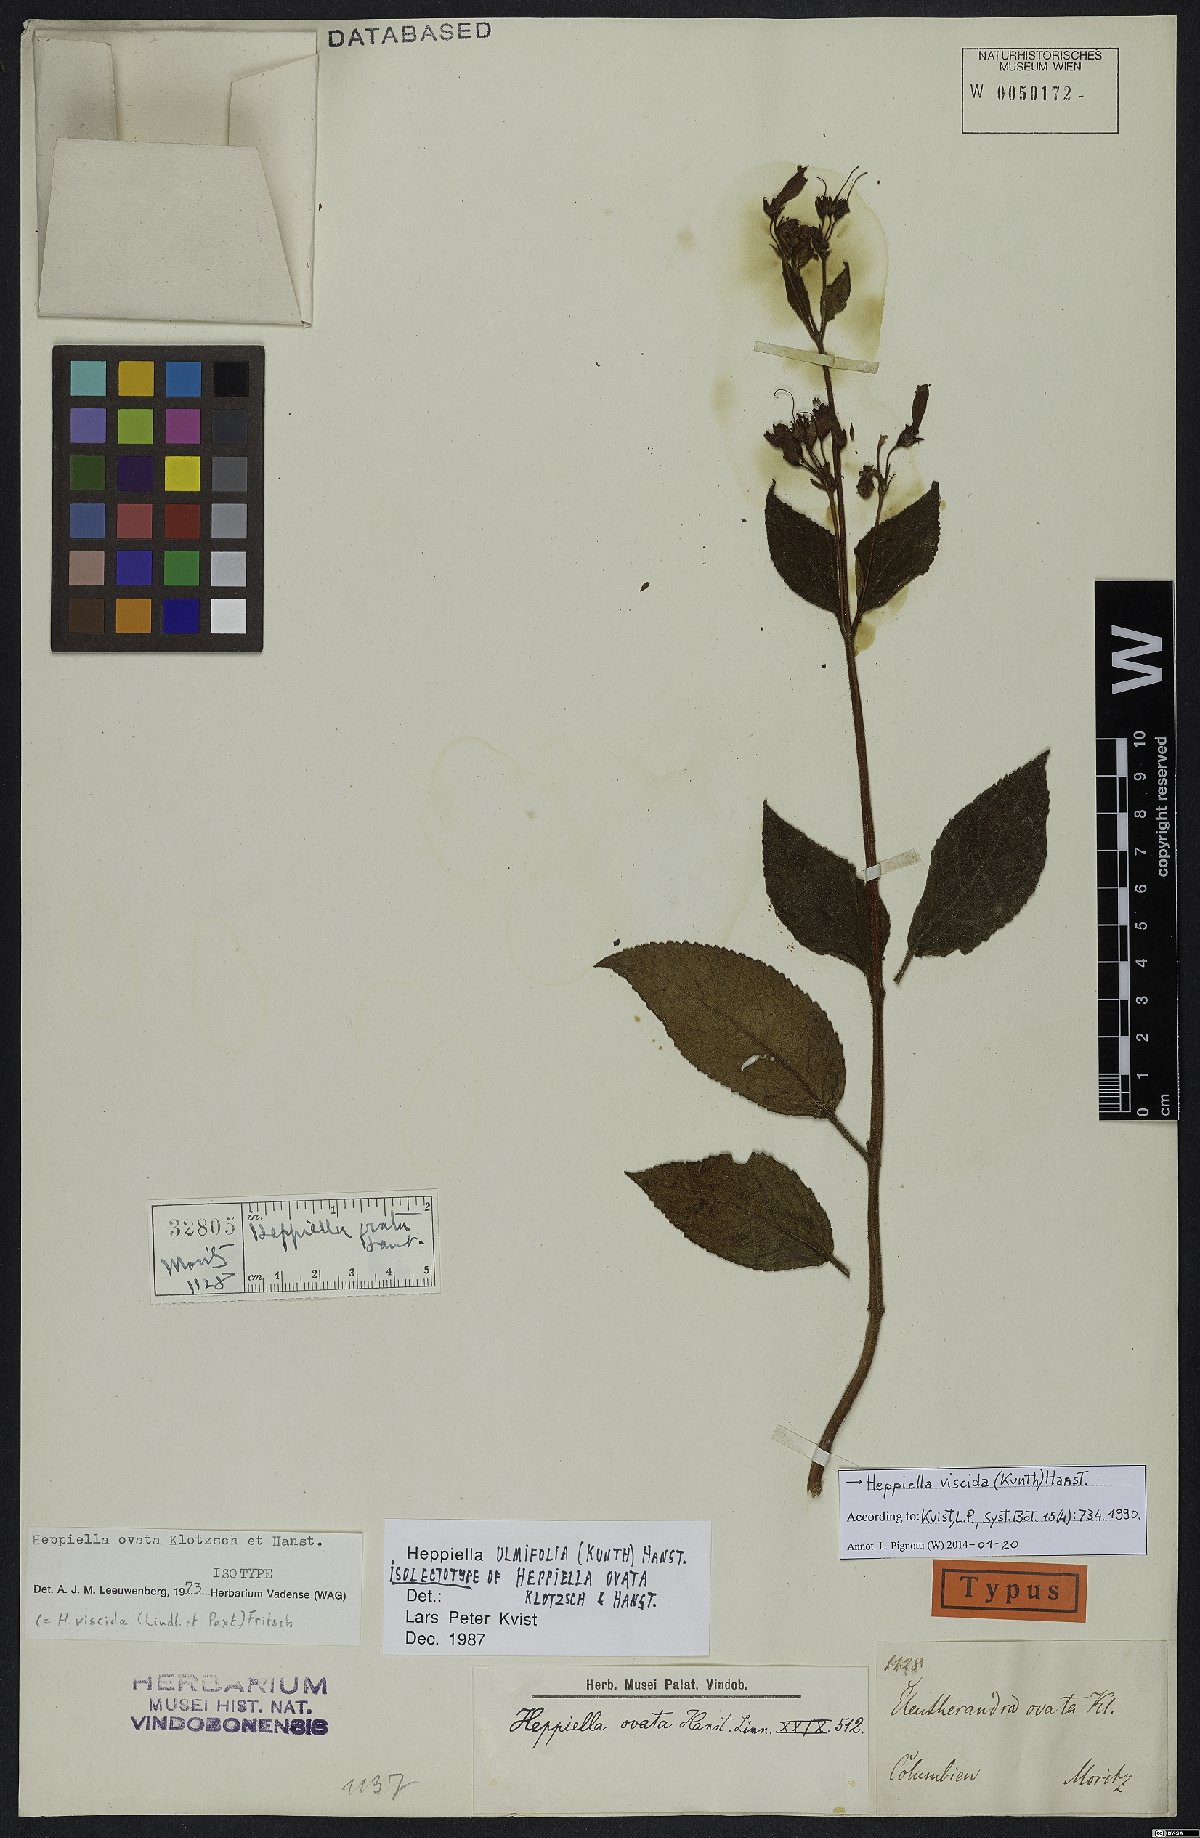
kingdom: Plantae
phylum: Tracheophyta
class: Magnoliopsida
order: Lamiales
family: Gesneriaceae
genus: Heppiella
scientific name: Heppiella viscida
